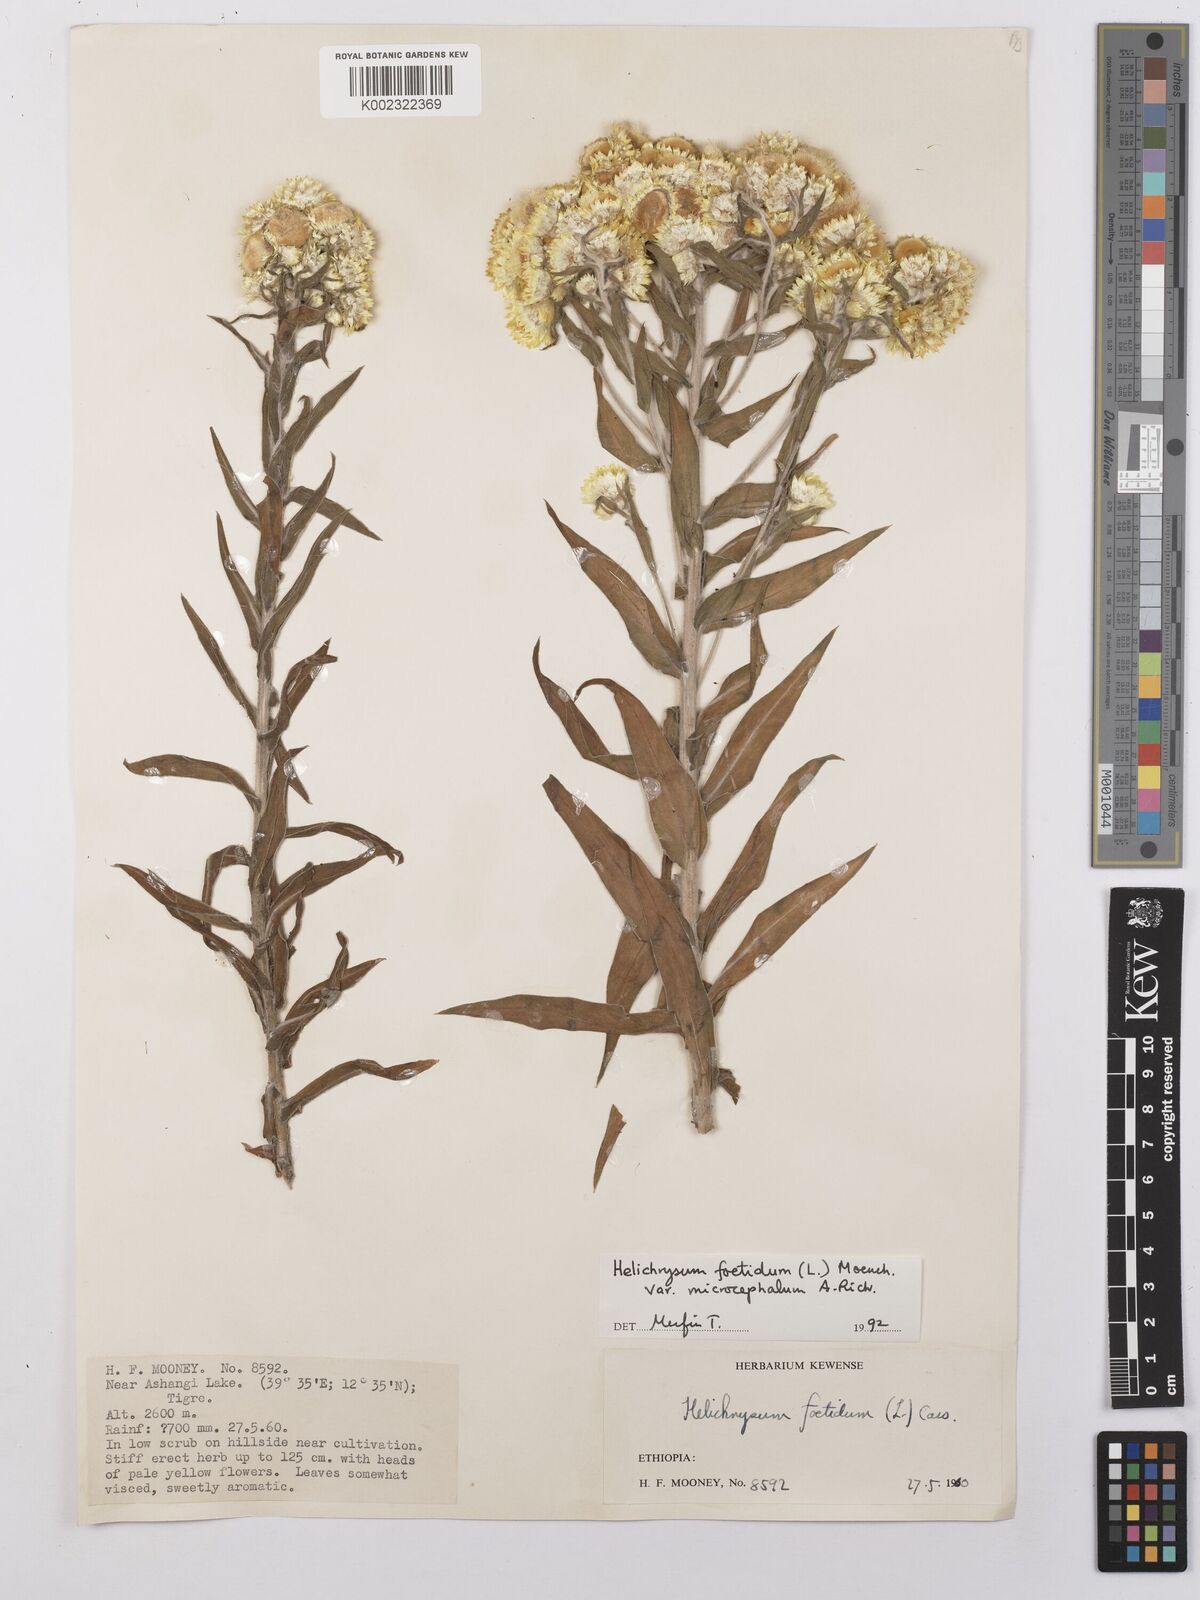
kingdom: Plantae
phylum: Tracheophyta
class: Magnoliopsida
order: Asterales
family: Asteraceae
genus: Helichrysum
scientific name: Helichrysum foetidum
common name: Stinking everlasting
